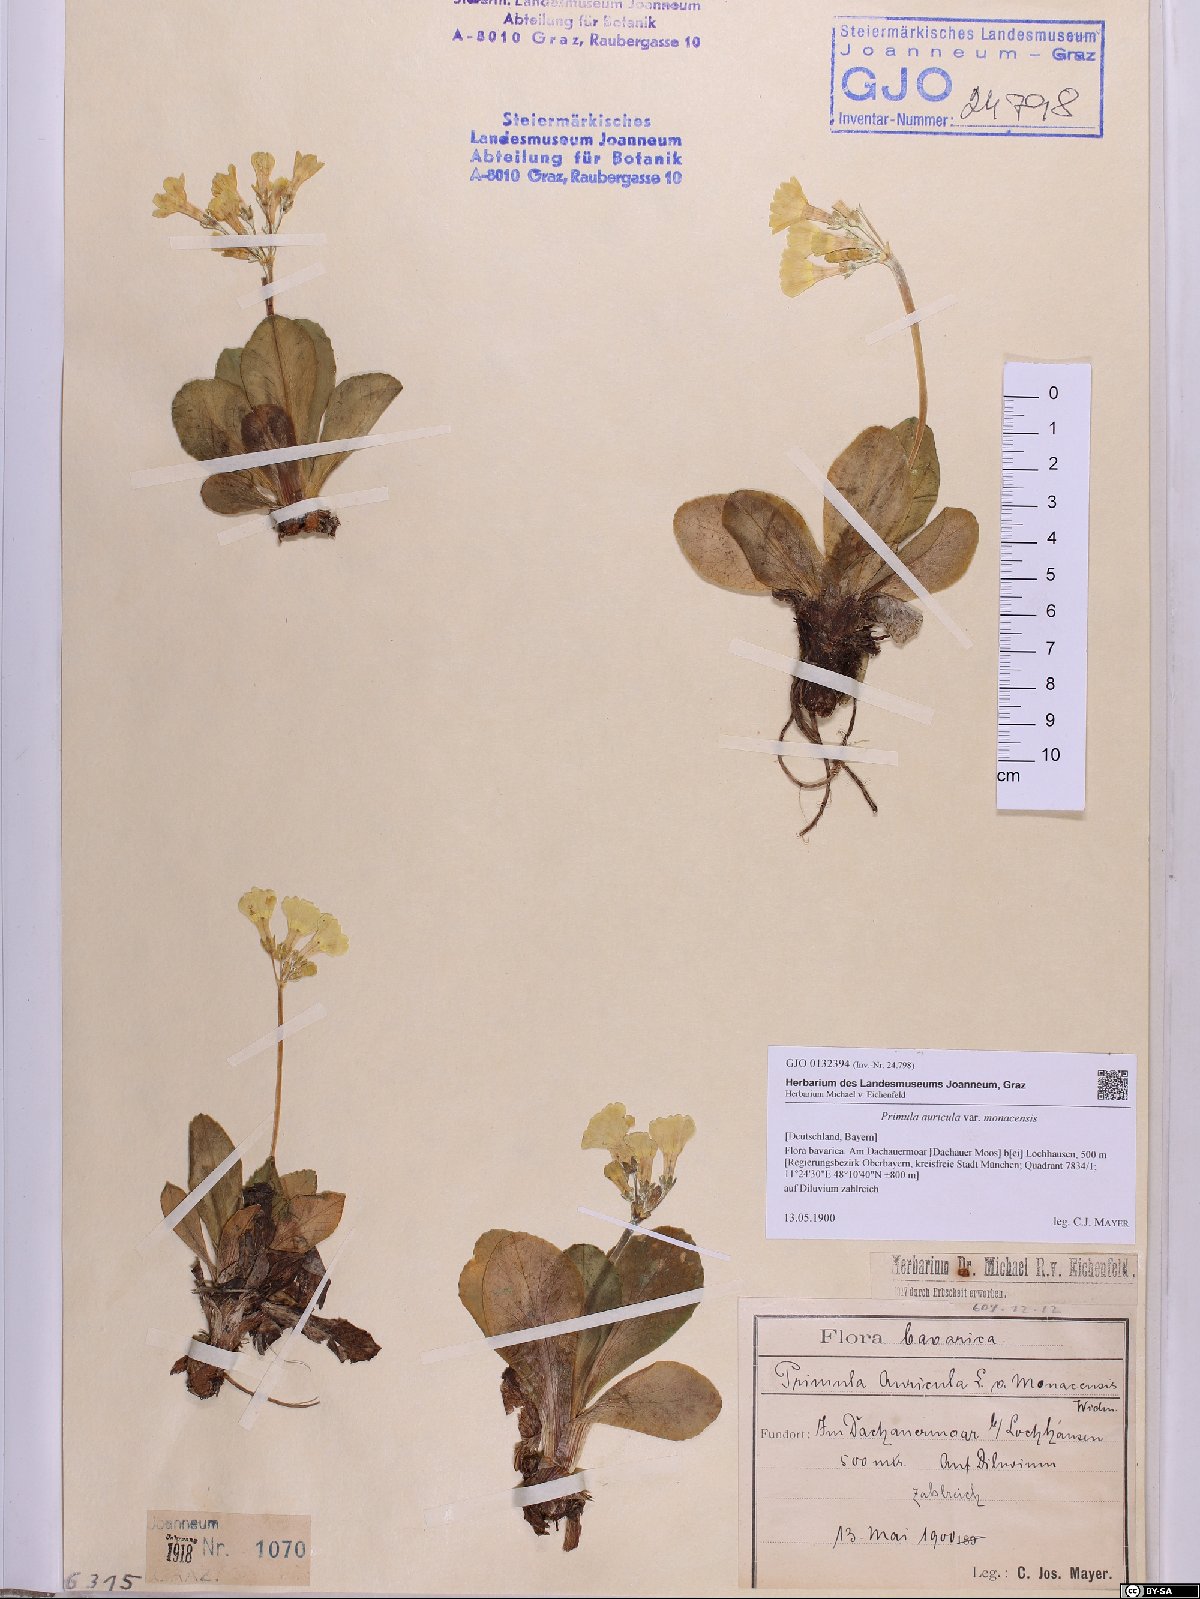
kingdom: Plantae
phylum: Tracheophyta
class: Magnoliopsida
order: Ericales
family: Primulaceae
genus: Primula
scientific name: Primula auricula
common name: Auricula
